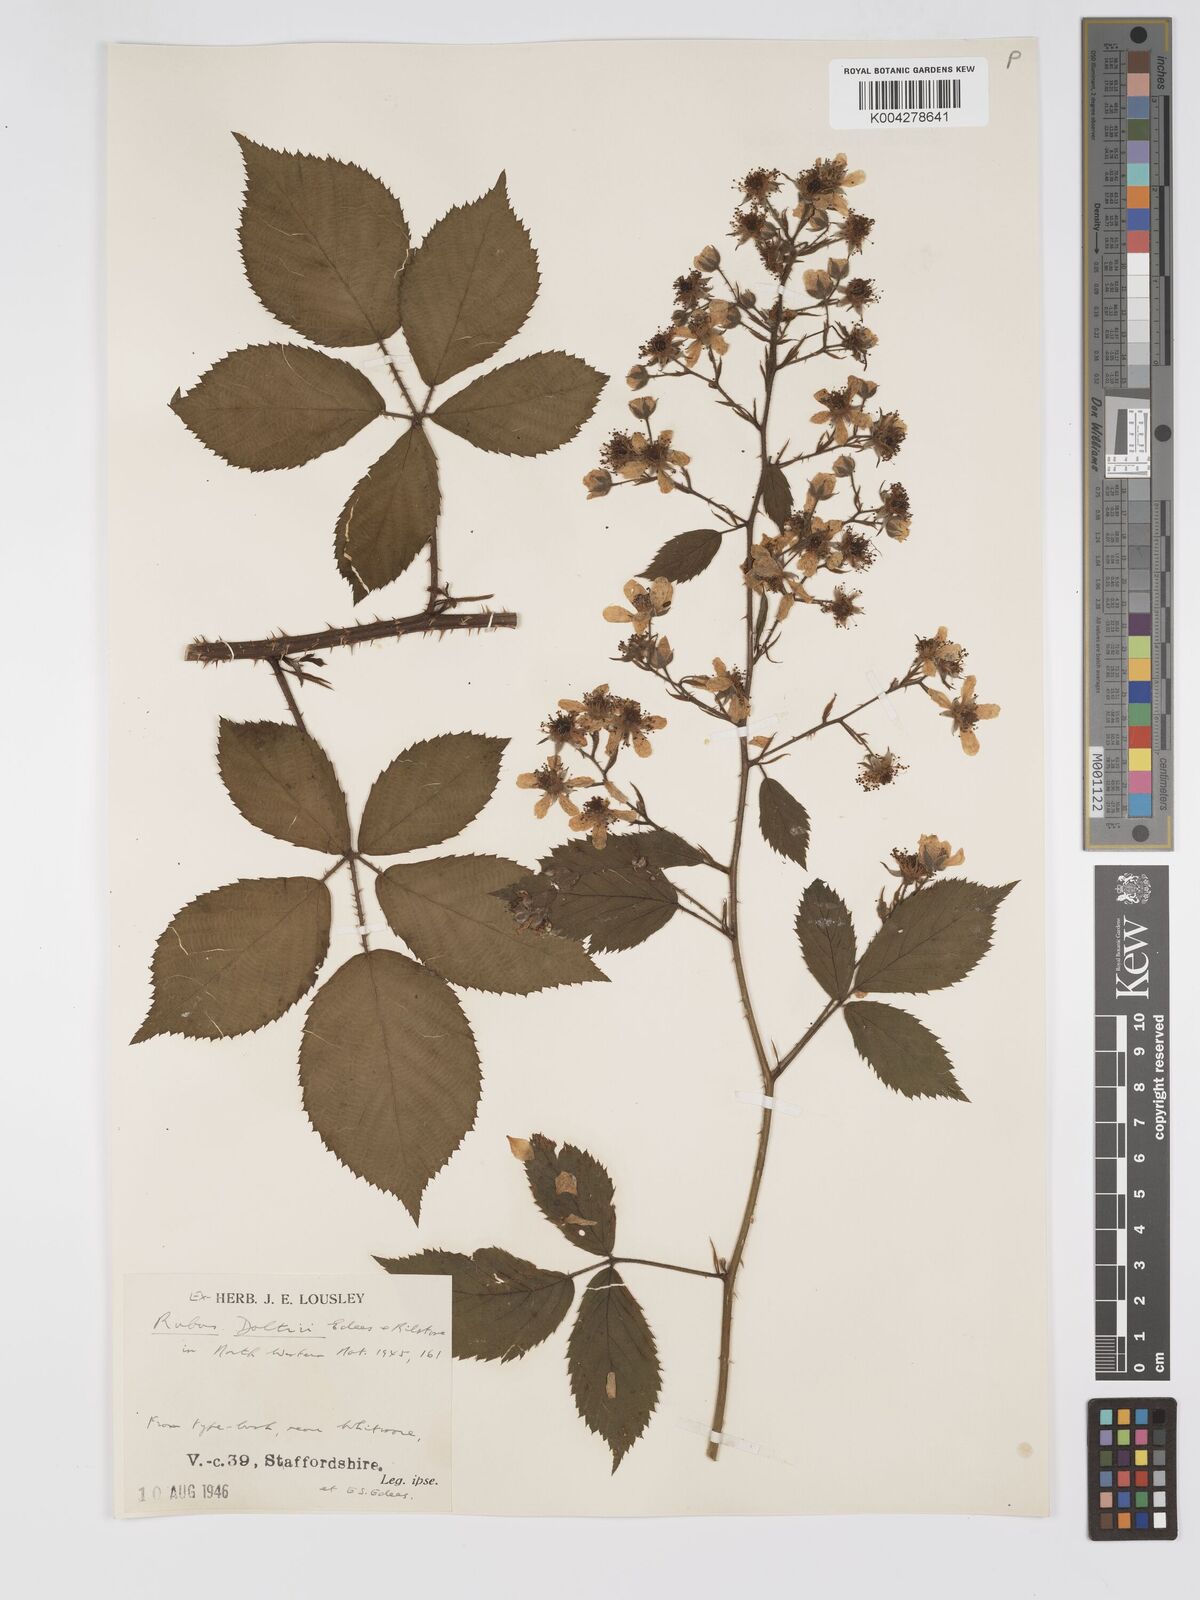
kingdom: Plantae
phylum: Tracheophyta
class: Magnoliopsida
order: Rosales
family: Rosaceae
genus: Rubus
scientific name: Rubus daltrii
